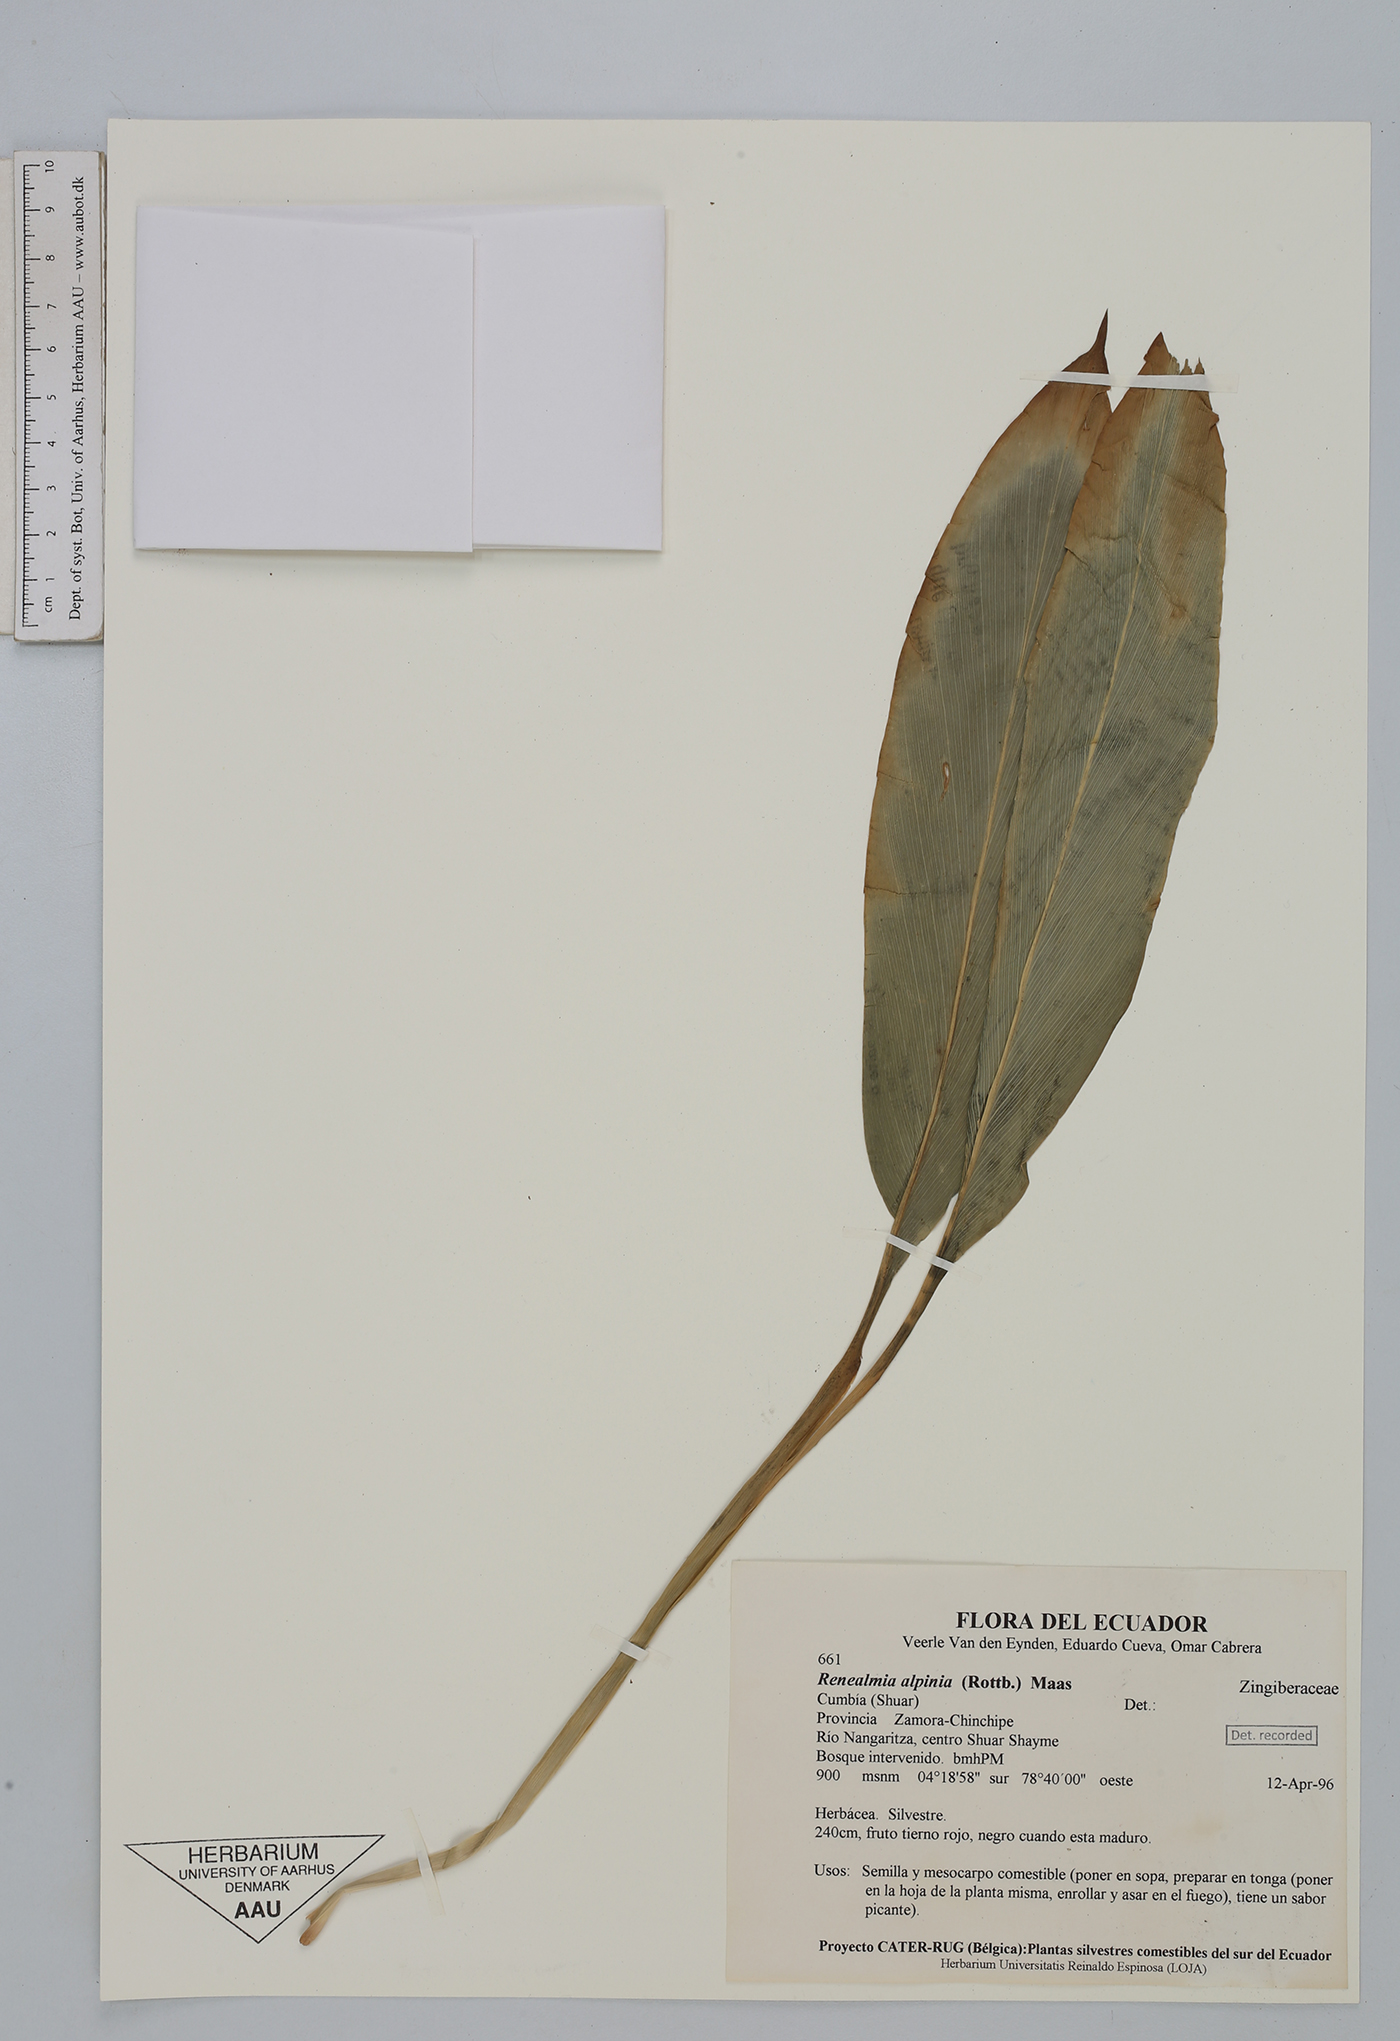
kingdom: Plantae
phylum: Tracheophyta
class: Liliopsida
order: Zingiberales
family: Zingiberaceae
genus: Renealmia
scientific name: Renealmia alpinia
